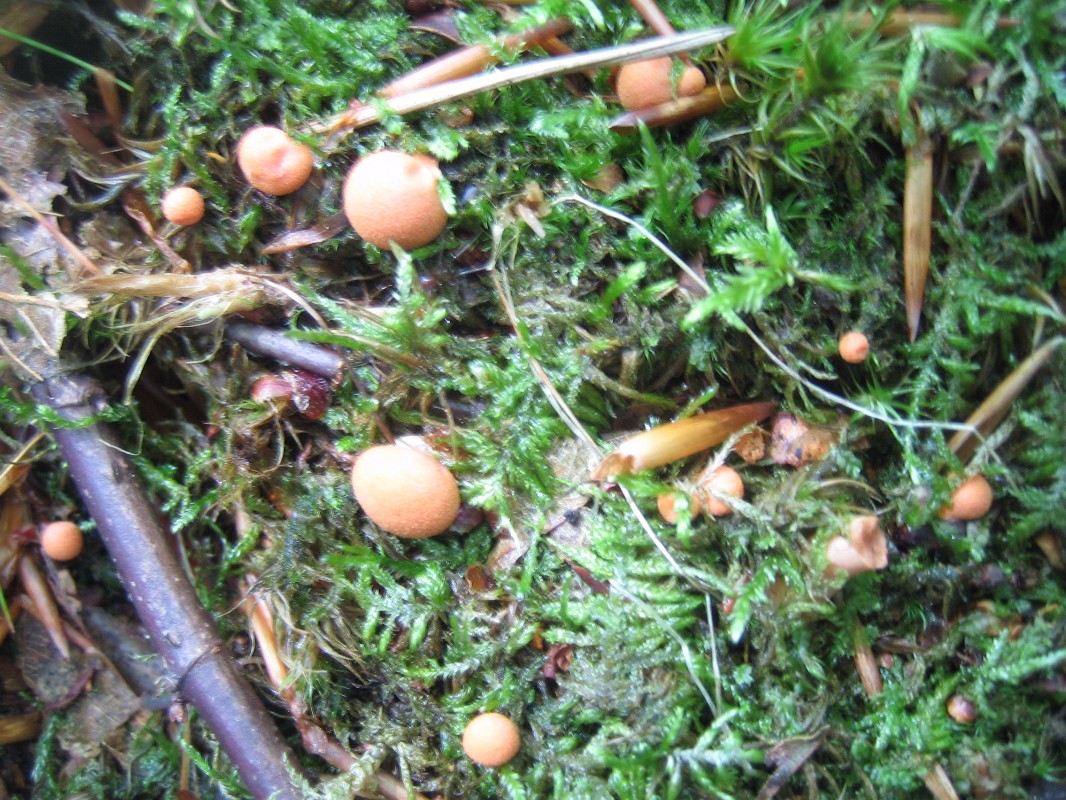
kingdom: Protozoa
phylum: Mycetozoa
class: Myxomycetes
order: Cribrariales
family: Tubiferaceae
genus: Lycogala
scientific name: Lycogala epidendrum
